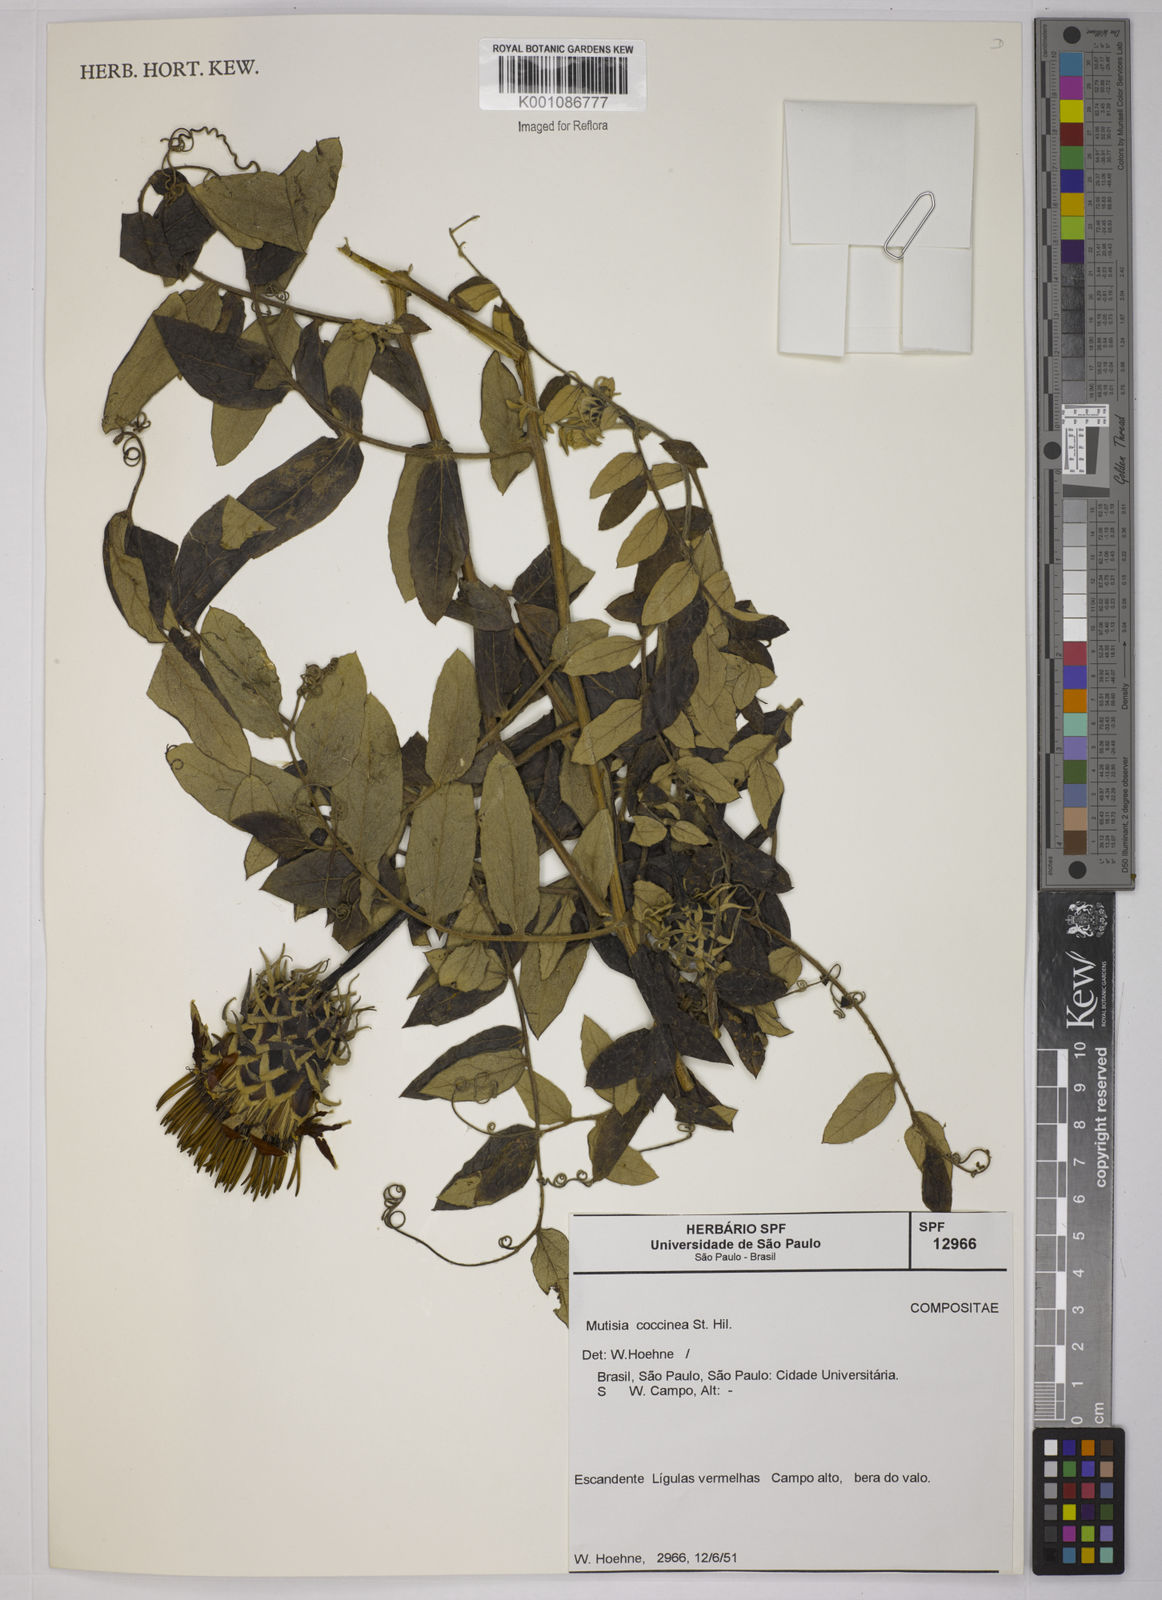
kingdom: Plantae
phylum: Tracheophyta
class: Magnoliopsida
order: Asterales
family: Asteraceae
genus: Mutisia
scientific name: Mutisia coccinea
